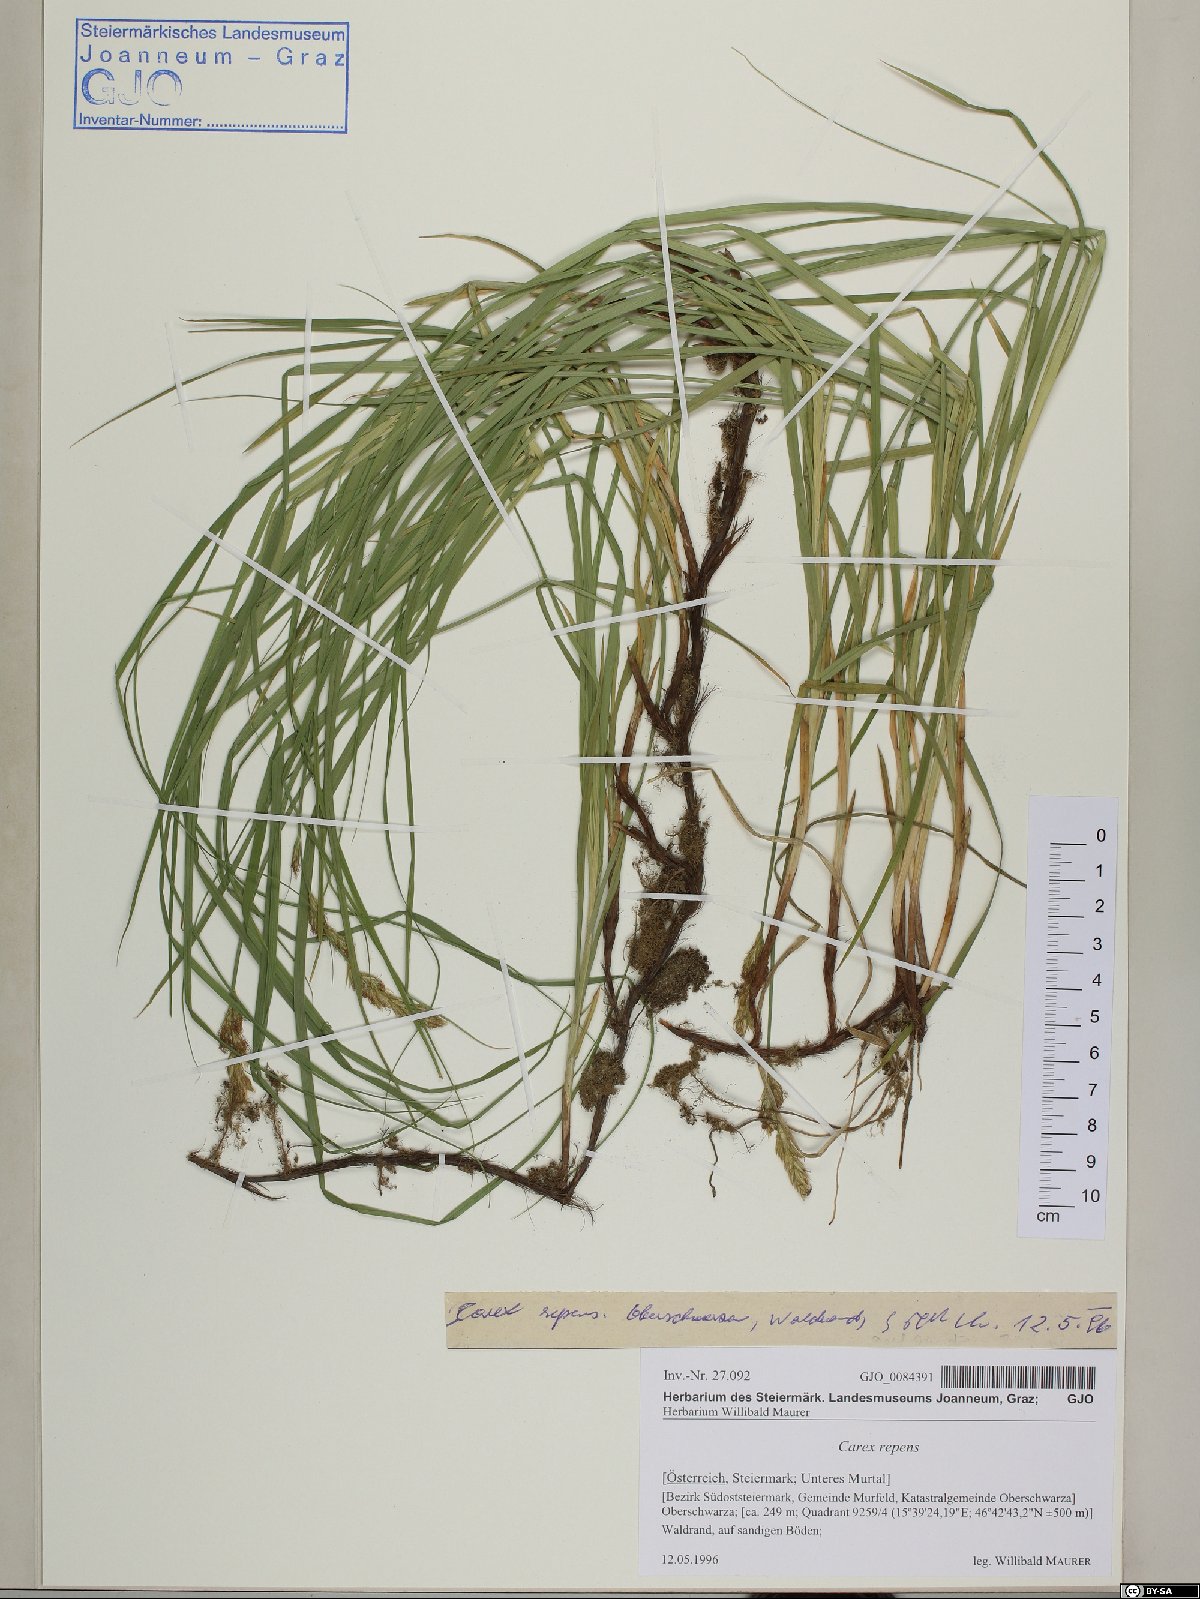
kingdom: Plantae
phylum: Tracheophyta
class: Liliopsida
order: Poales
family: Cyperaceae
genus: Carex
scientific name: Carex repens
